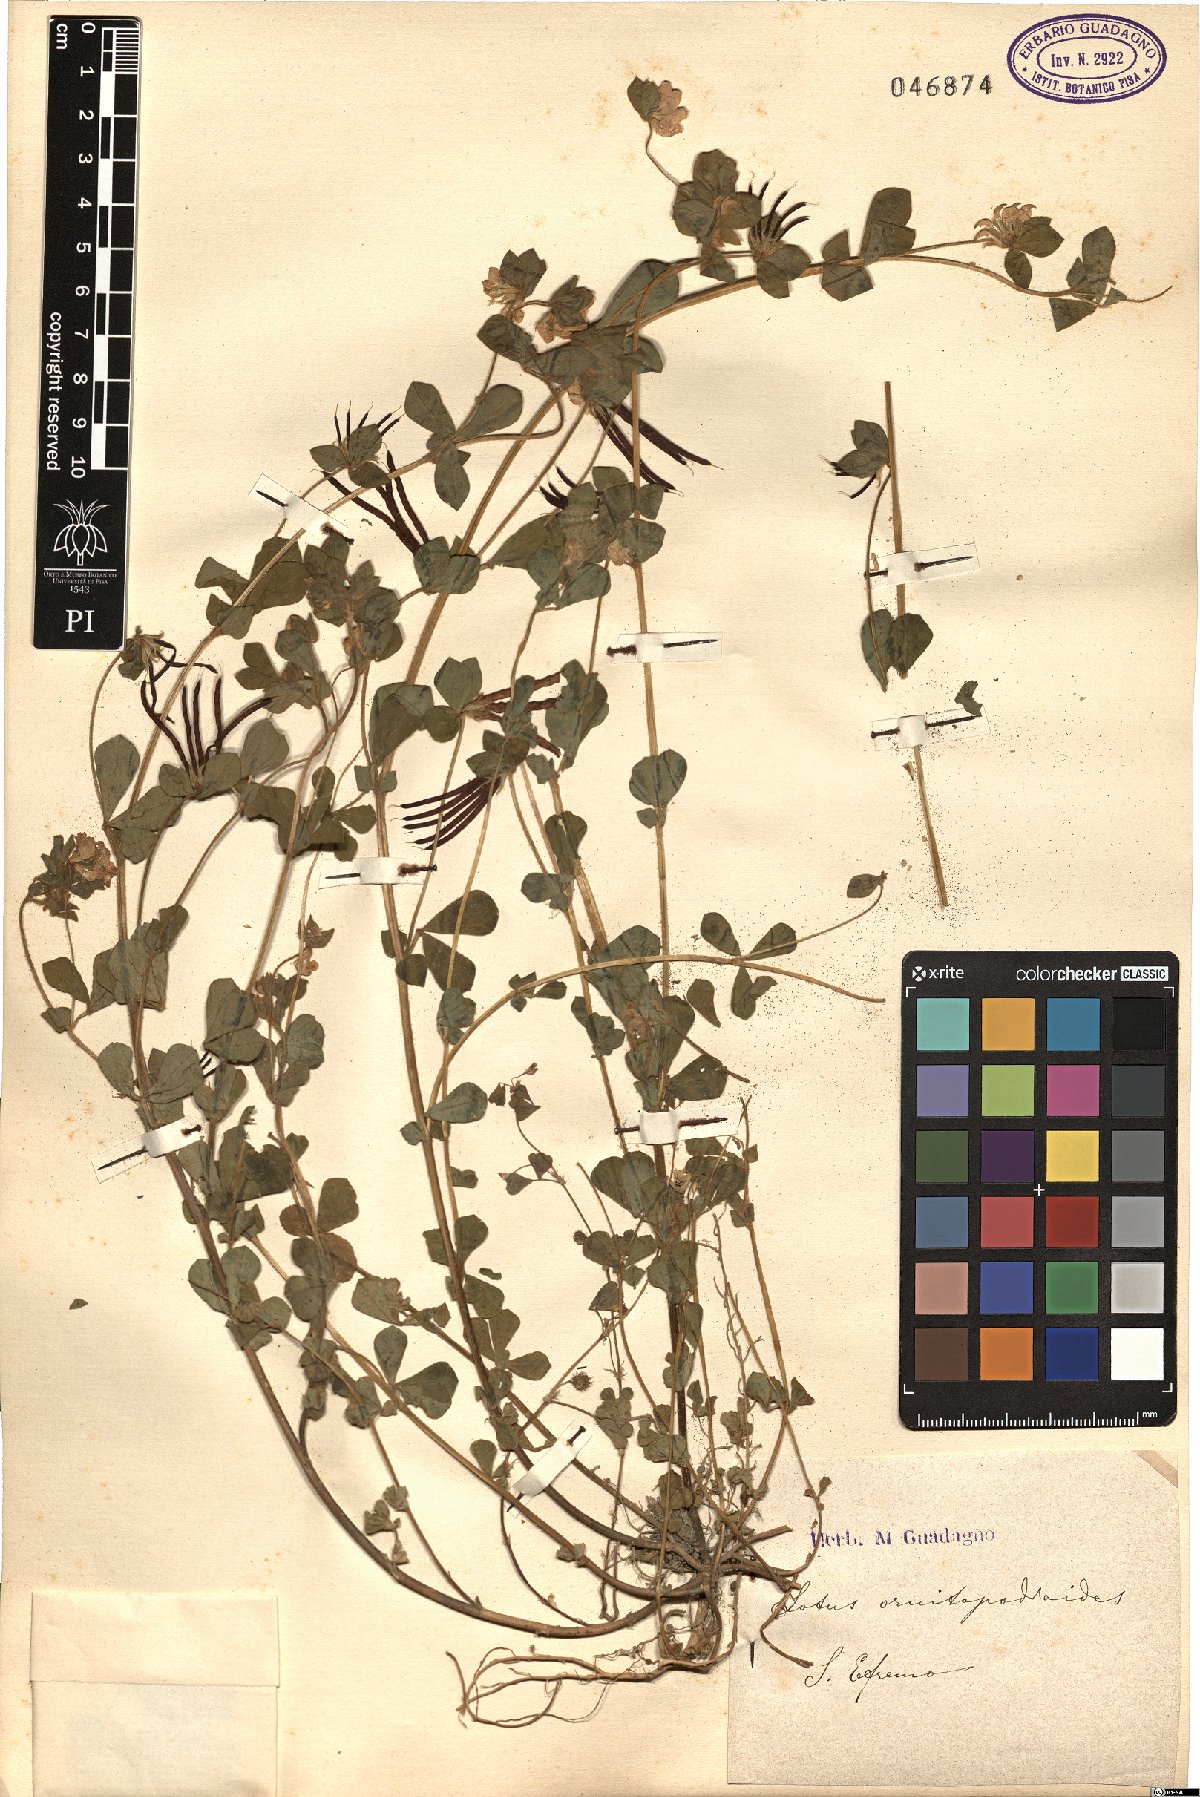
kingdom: Plantae
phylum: Tracheophyta
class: Magnoliopsida
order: Fabales
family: Fabaceae
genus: Lotus
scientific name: Lotus ornithopodioides
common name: Southern bird's-foot trefoil
